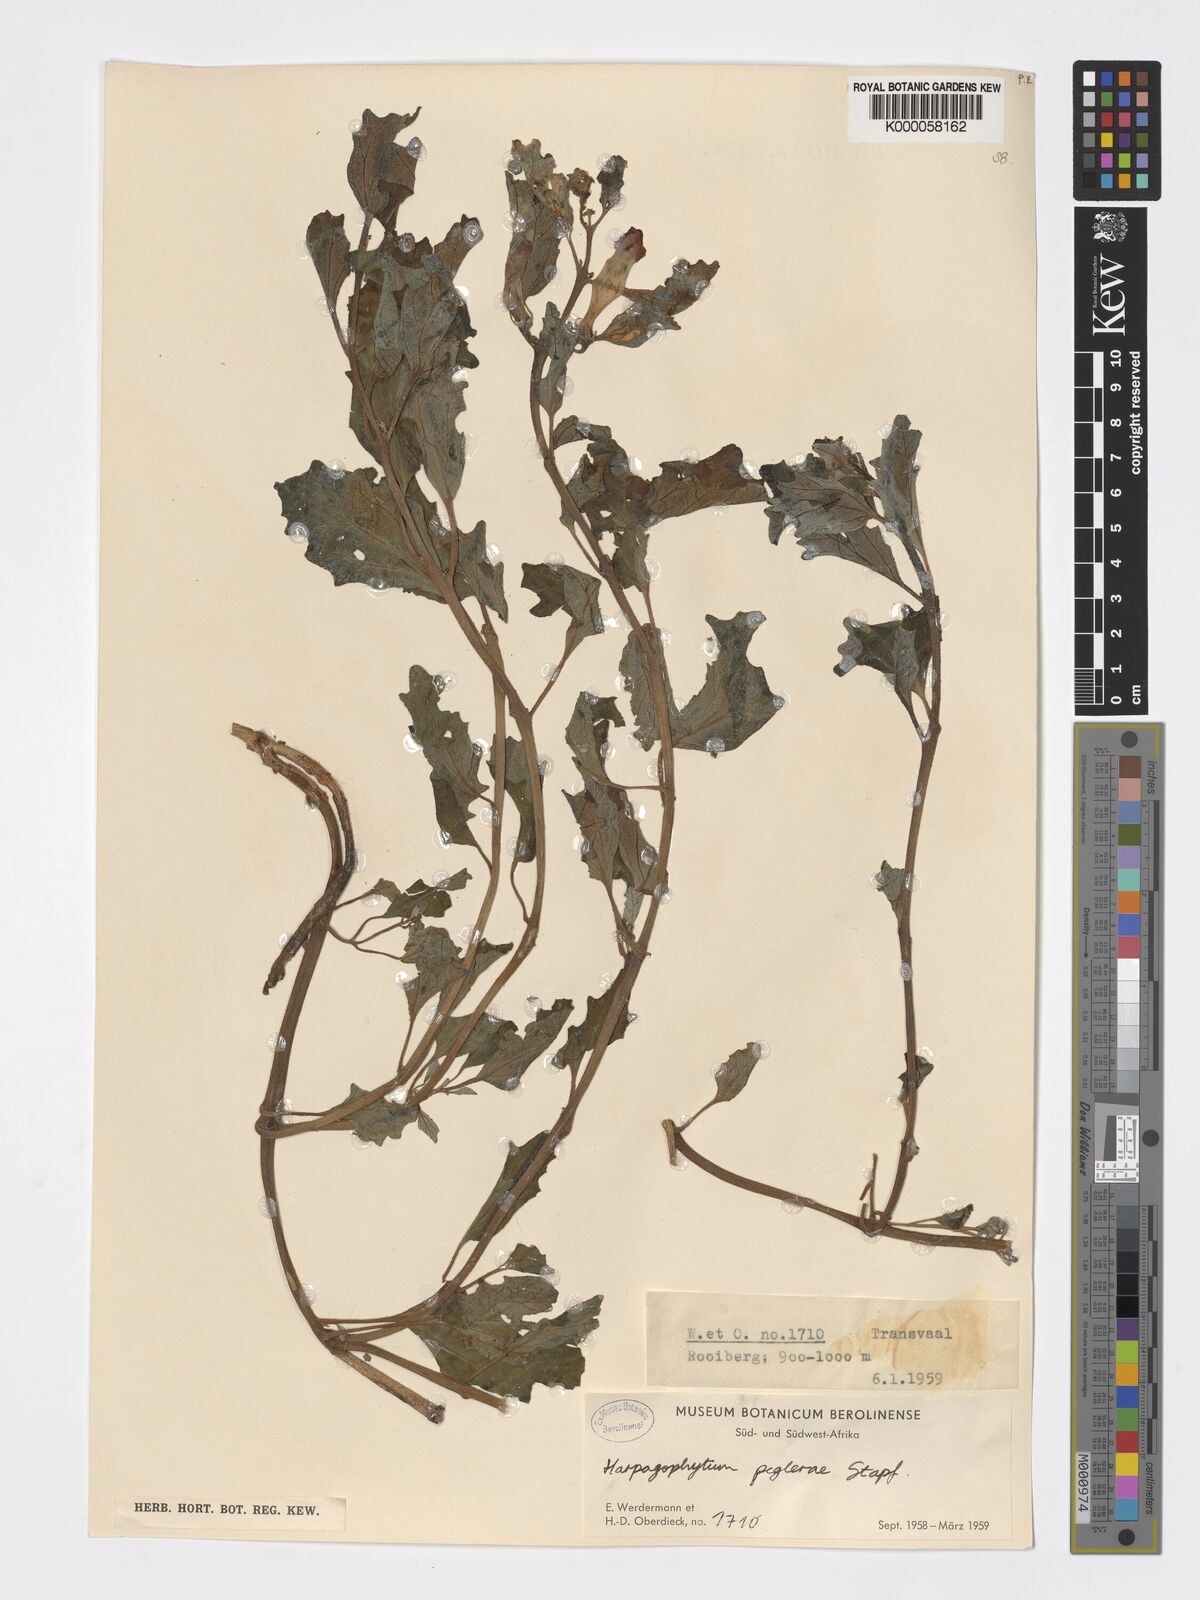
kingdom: Plantae
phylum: Tracheophyta
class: Magnoliopsida
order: Lamiales
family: Pedaliaceae
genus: Harpagophytum
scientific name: Harpagophytum zeyheri
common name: Grappleplant
